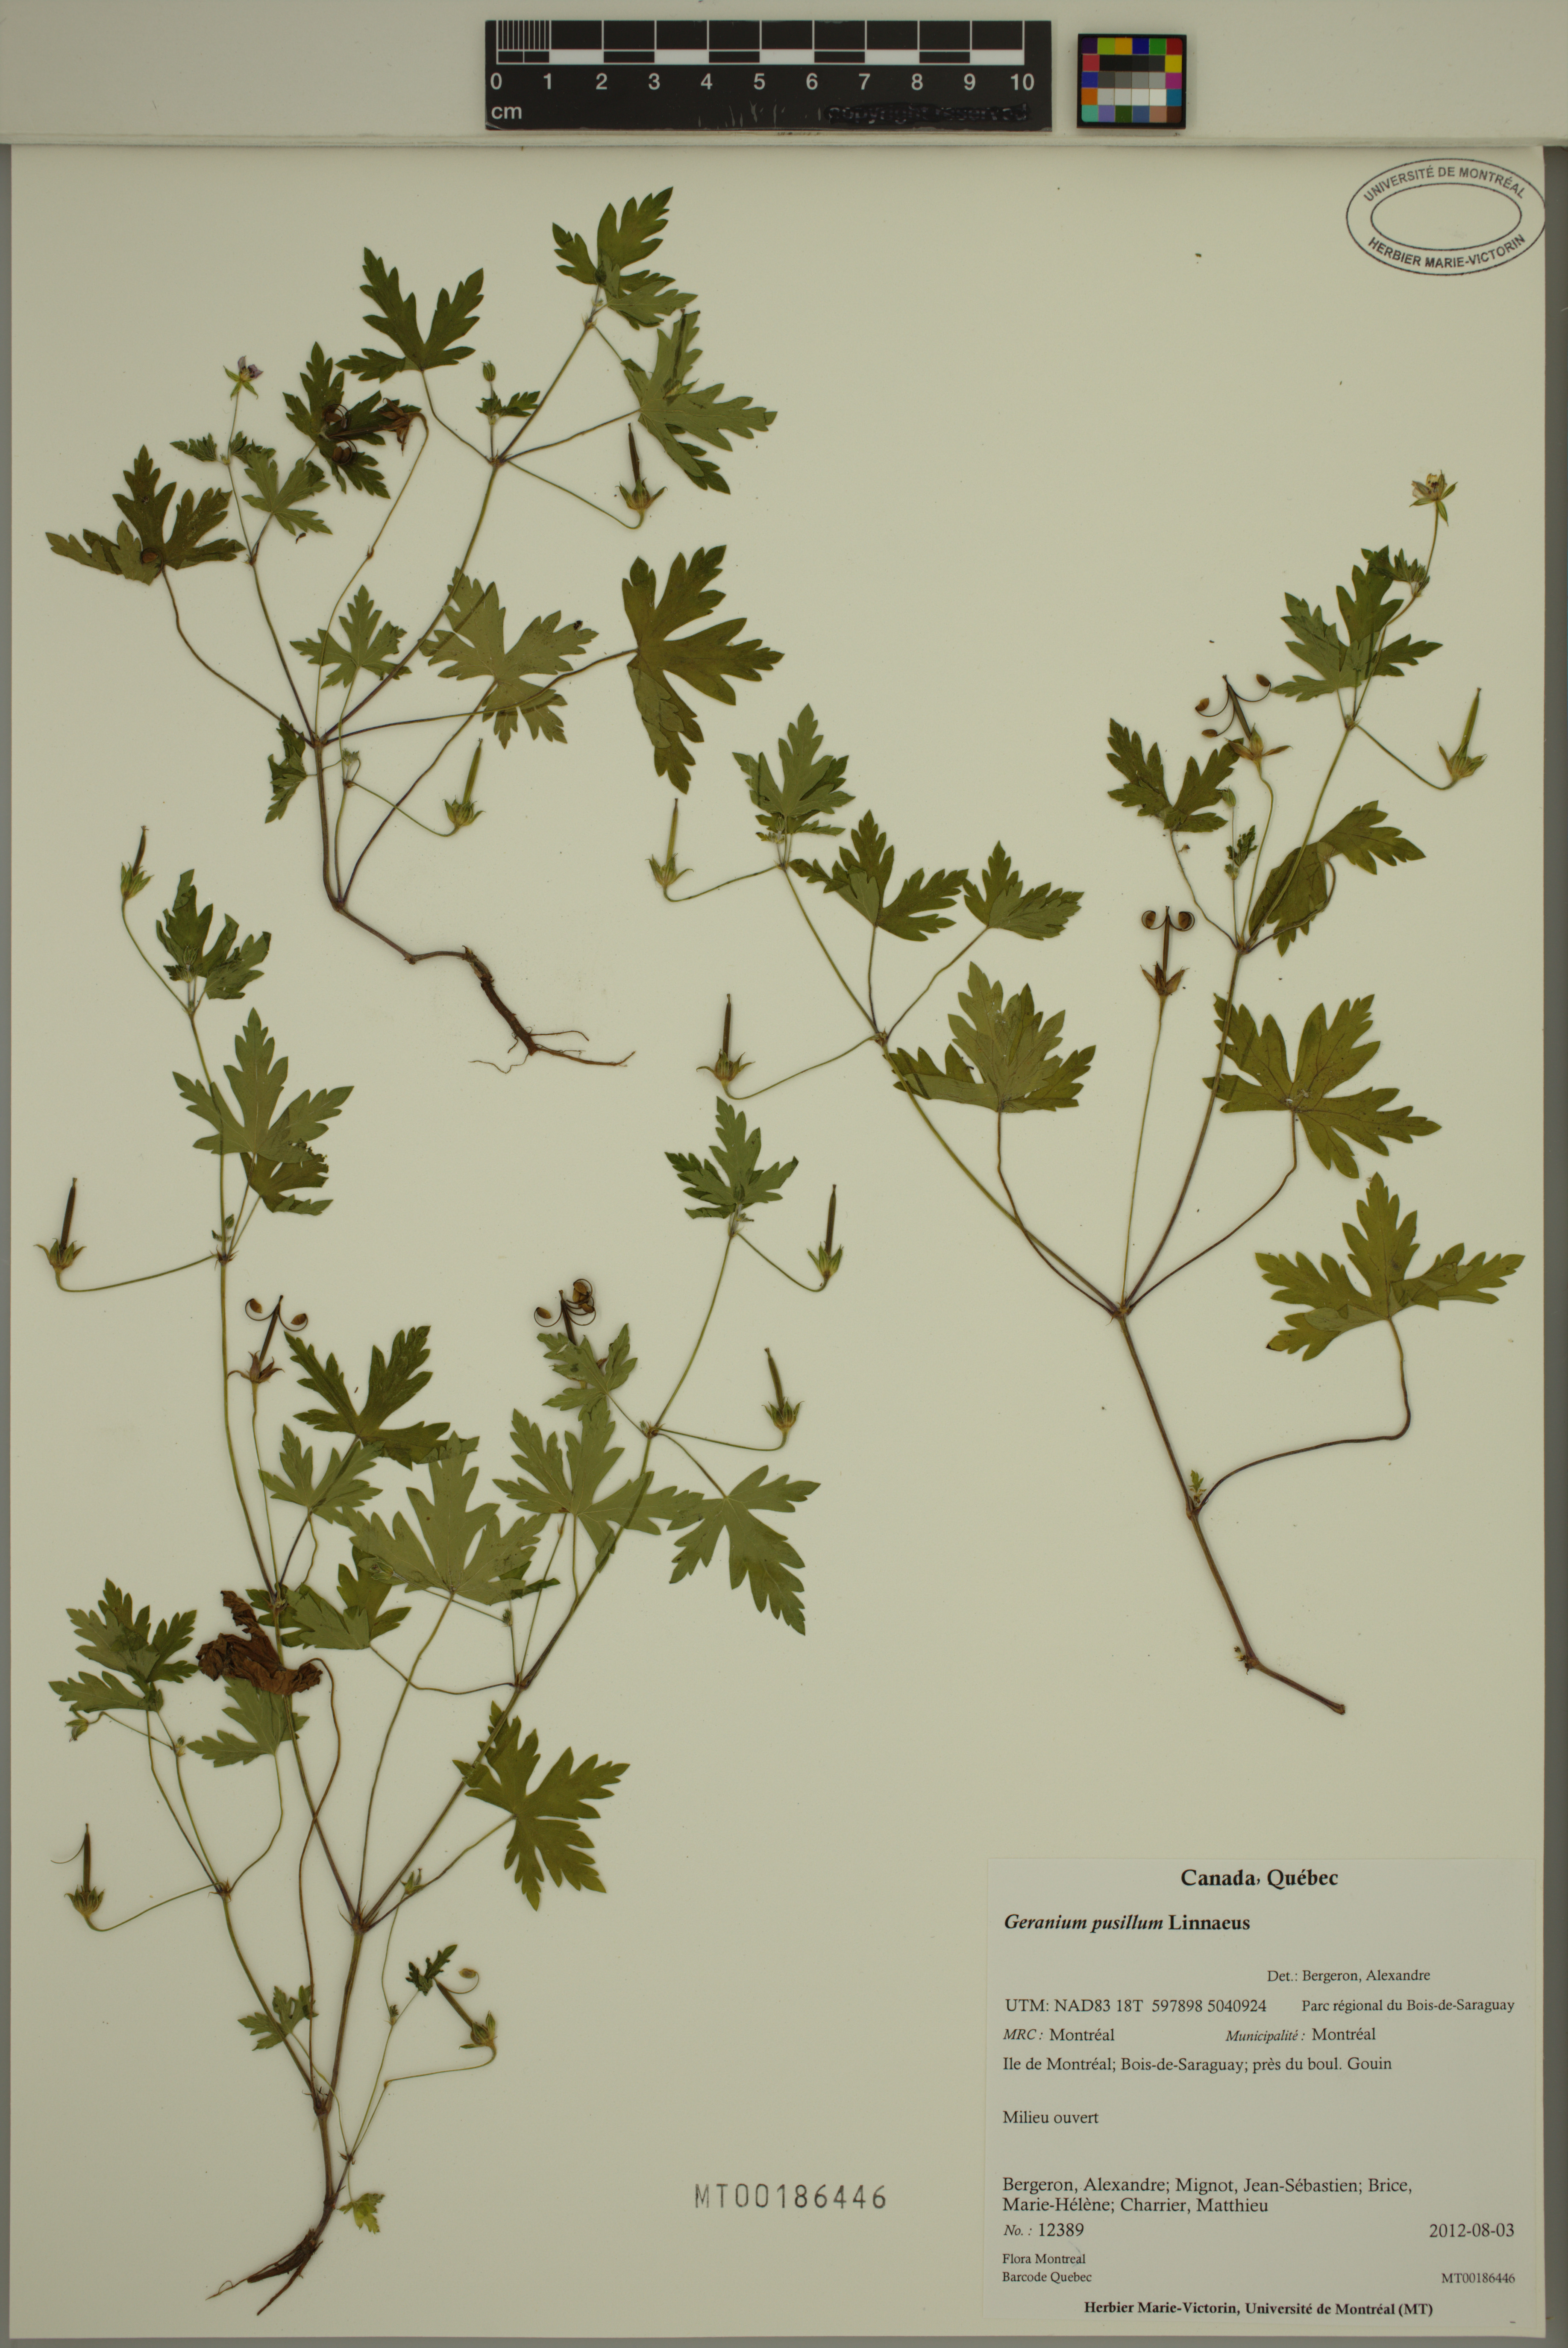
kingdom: Plantae
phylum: Tracheophyta
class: Magnoliopsida
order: Geraniales
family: Geraniaceae
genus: Geranium
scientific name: Geranium pusillum
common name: Small geranium
